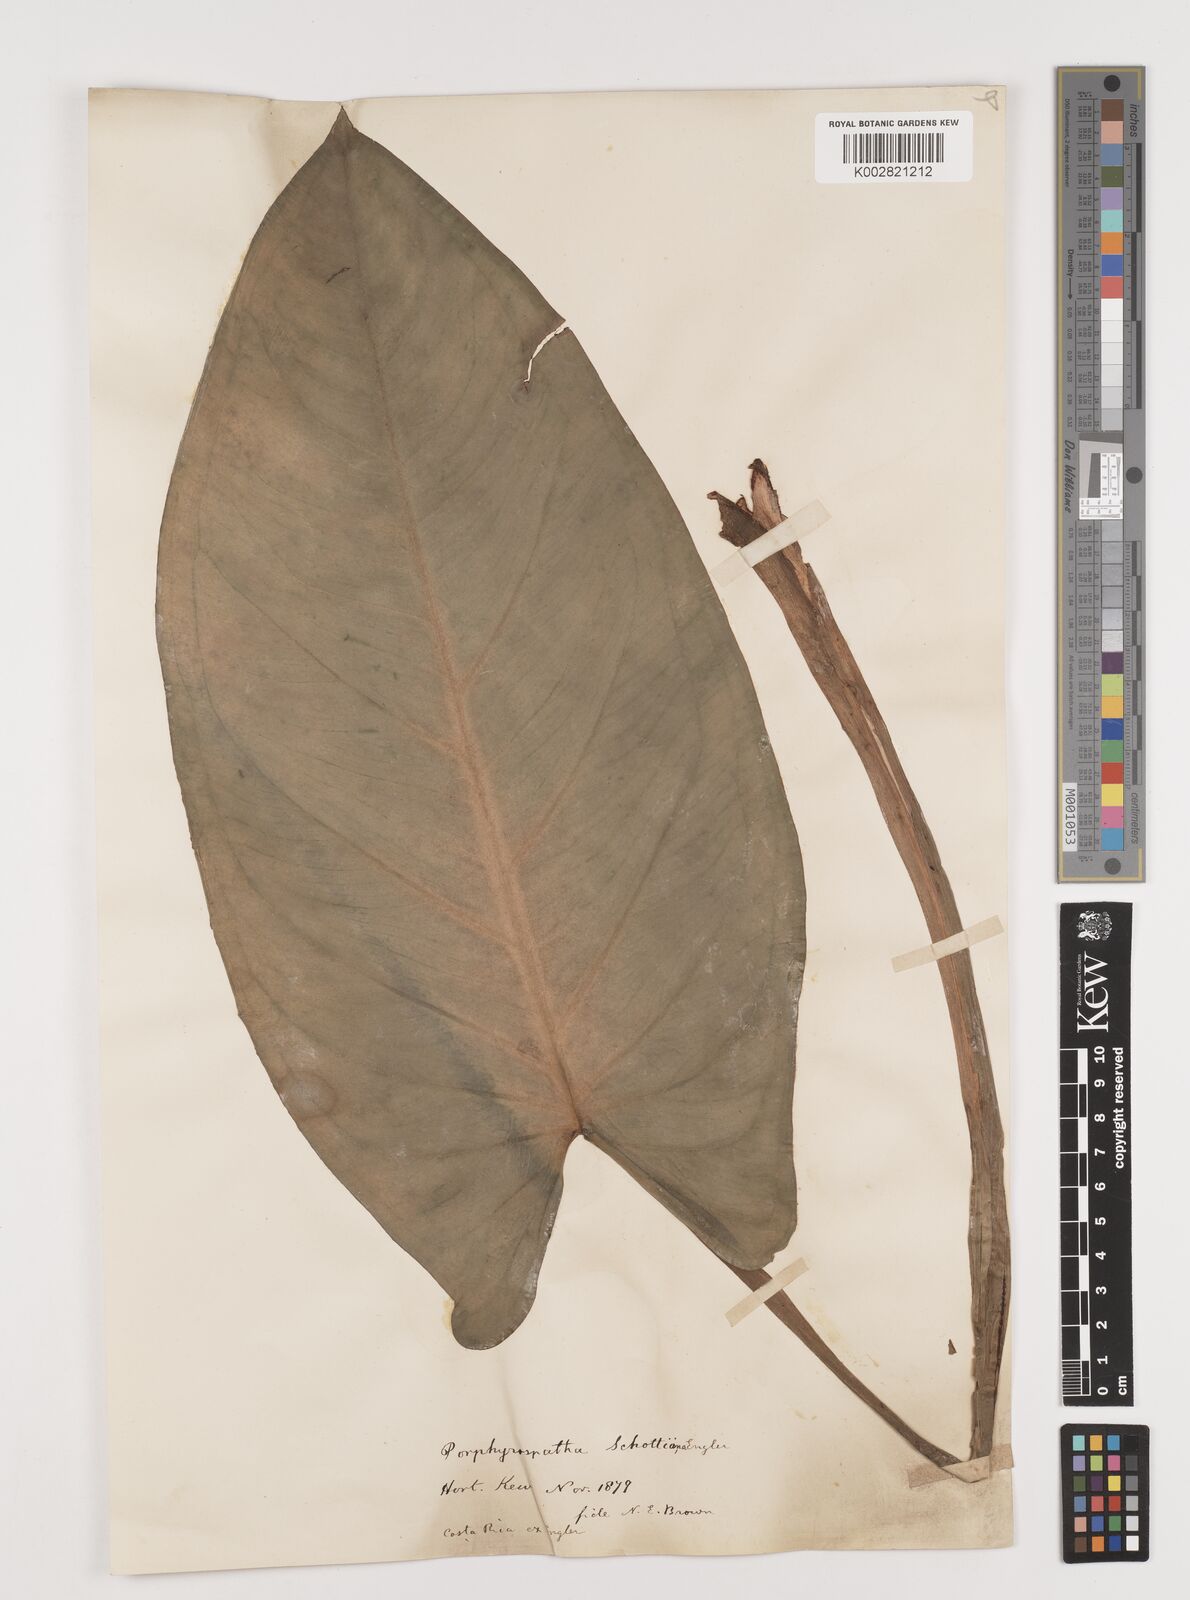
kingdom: Plantae
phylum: Tracheophyta
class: Liliopsida
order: Alismatales
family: Araceae
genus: Syngonium
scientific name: Syngonium schottianum
